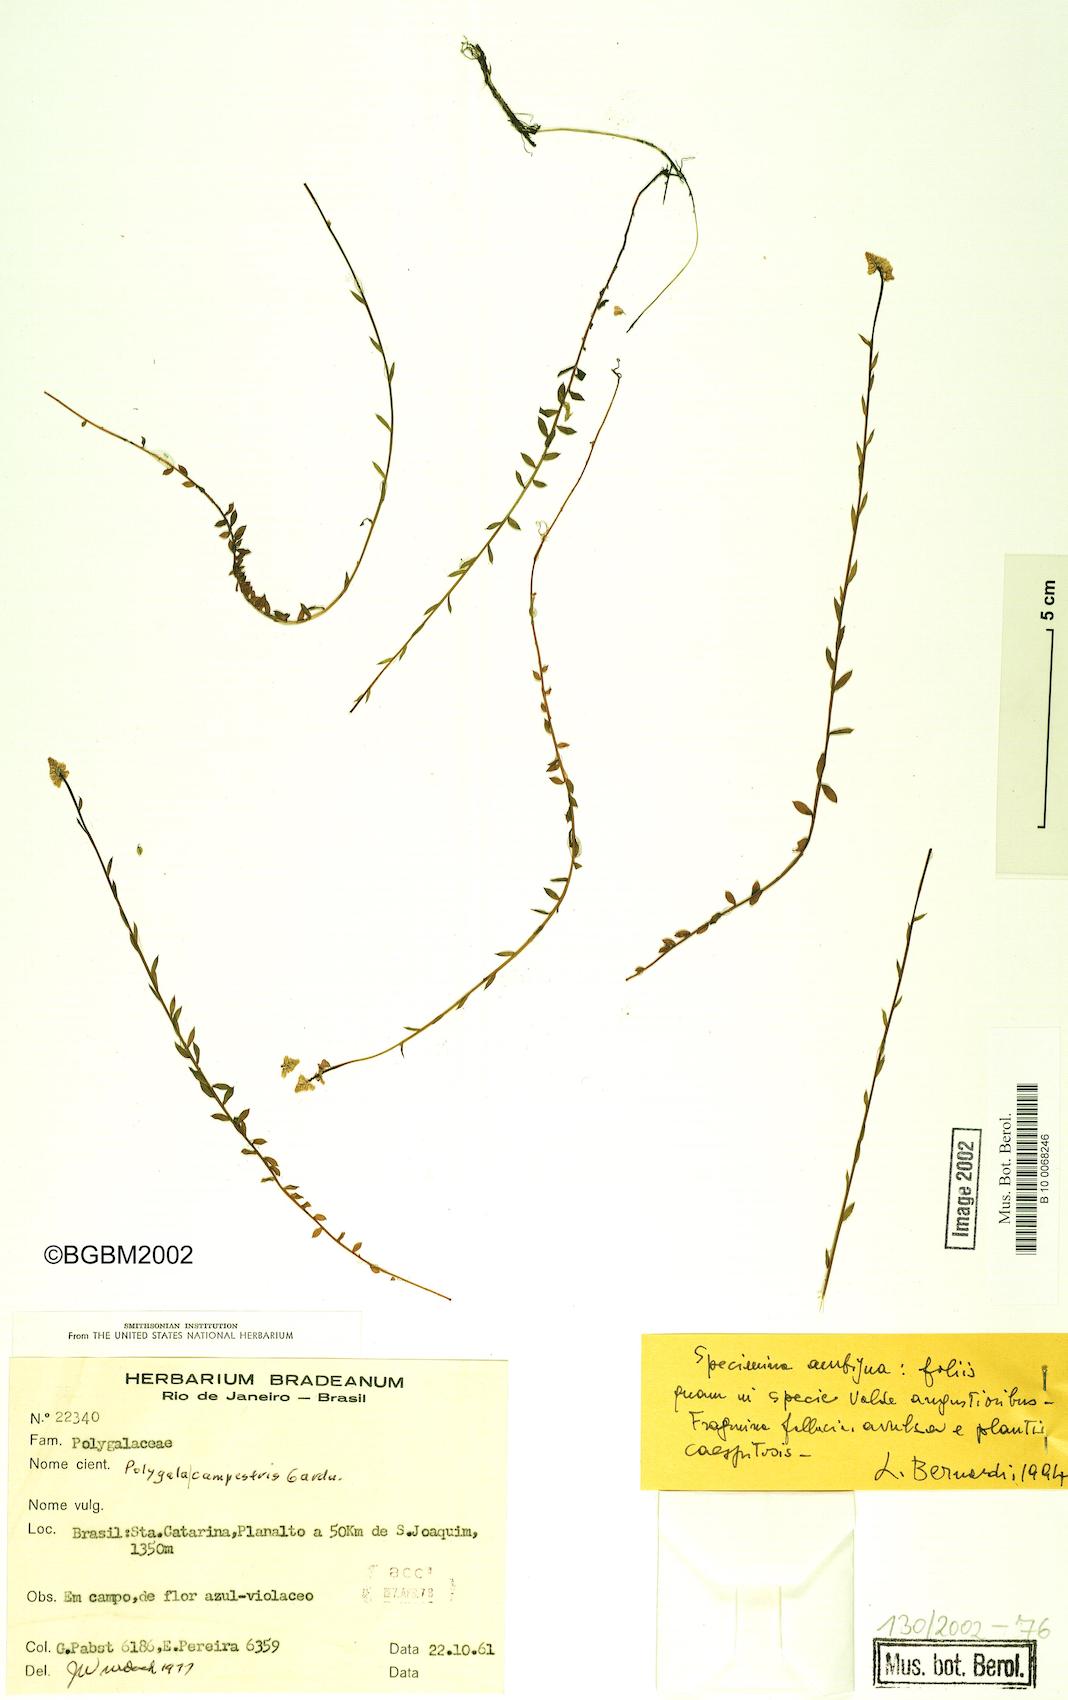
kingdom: Plantae
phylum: Tracheophyta
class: Magnoliopsida
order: Fabales
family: Polygalaceae
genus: Polygala
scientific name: Polygala campestris
